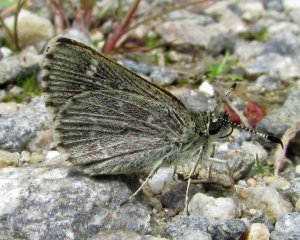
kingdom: Animalia
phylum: Arthropoda
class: Insecta
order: Lepidoptera
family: Hesperiidae
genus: Mastor
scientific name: Mastor hegon
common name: Pepper and Salt Skipper
